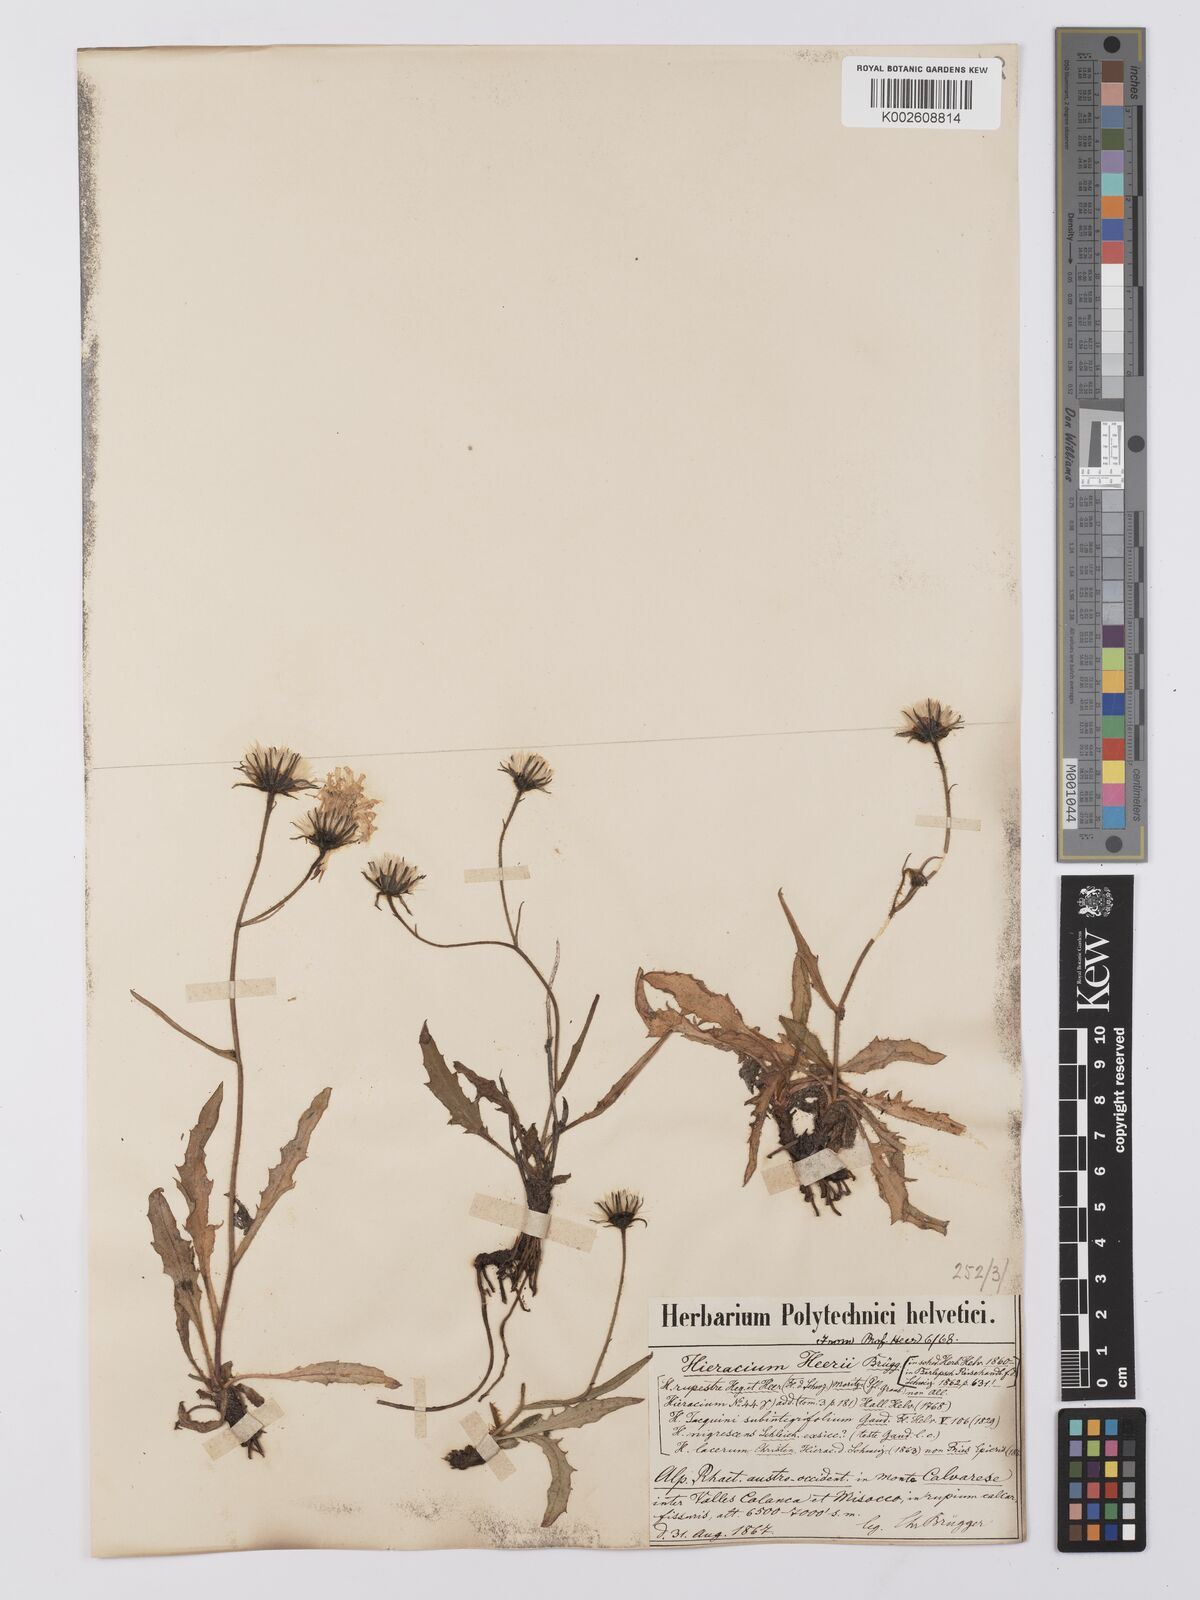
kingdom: Plantae
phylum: Tracheophyta
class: Magnoliopsida
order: Asterales
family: Asteraceae
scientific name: Asteraceae
